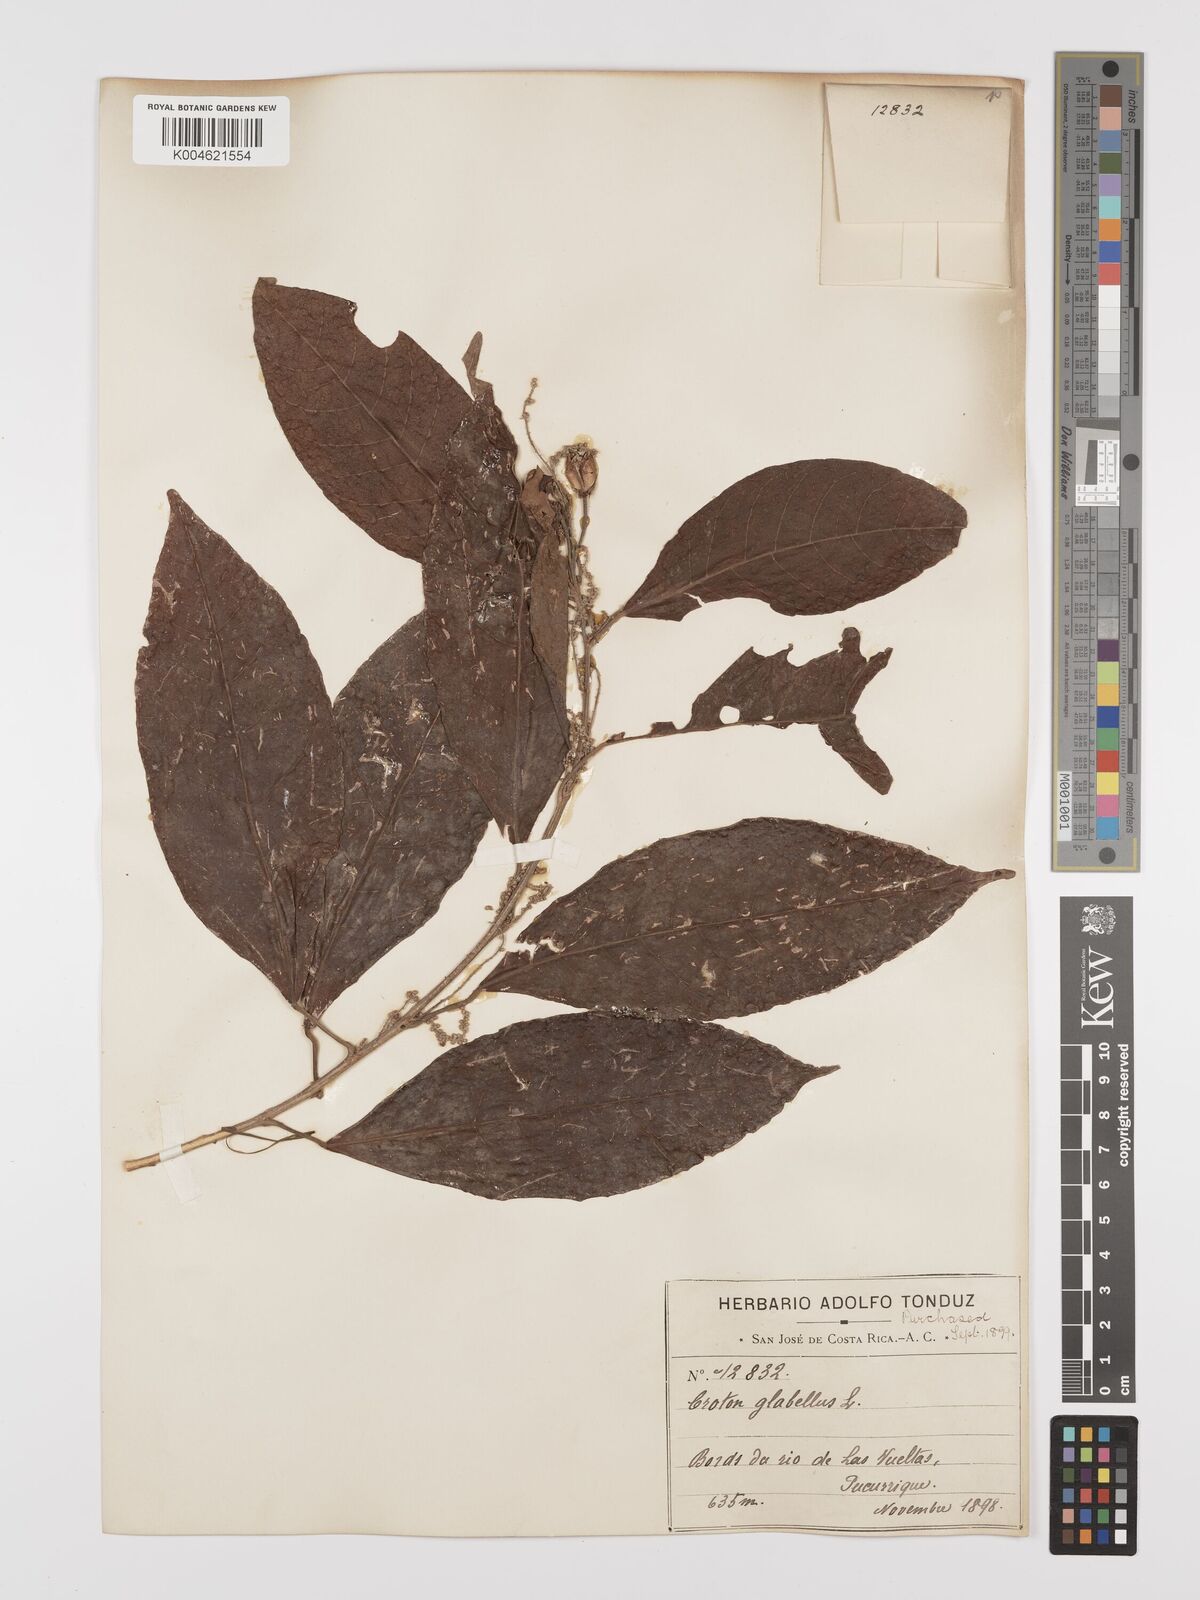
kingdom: Plantae
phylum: Tracheophyta
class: Magnoliopsida
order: Malpighiales
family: Euphorbiaceae
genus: Croton
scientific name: Croton glabellus
